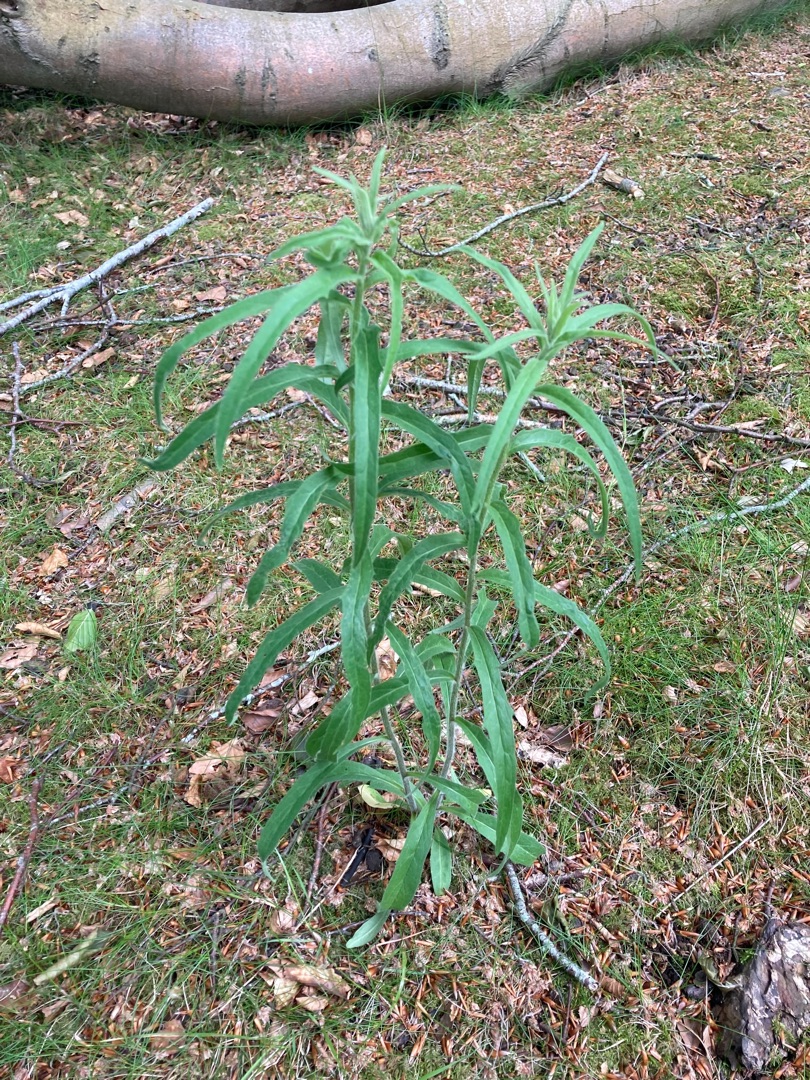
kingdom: Plantae
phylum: Tracheophyta
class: Magnoliopsida
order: Asterales
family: Asteraceae
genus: Hieracium
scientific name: Hieracium umbellatum
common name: Smalbladet høgeurt
